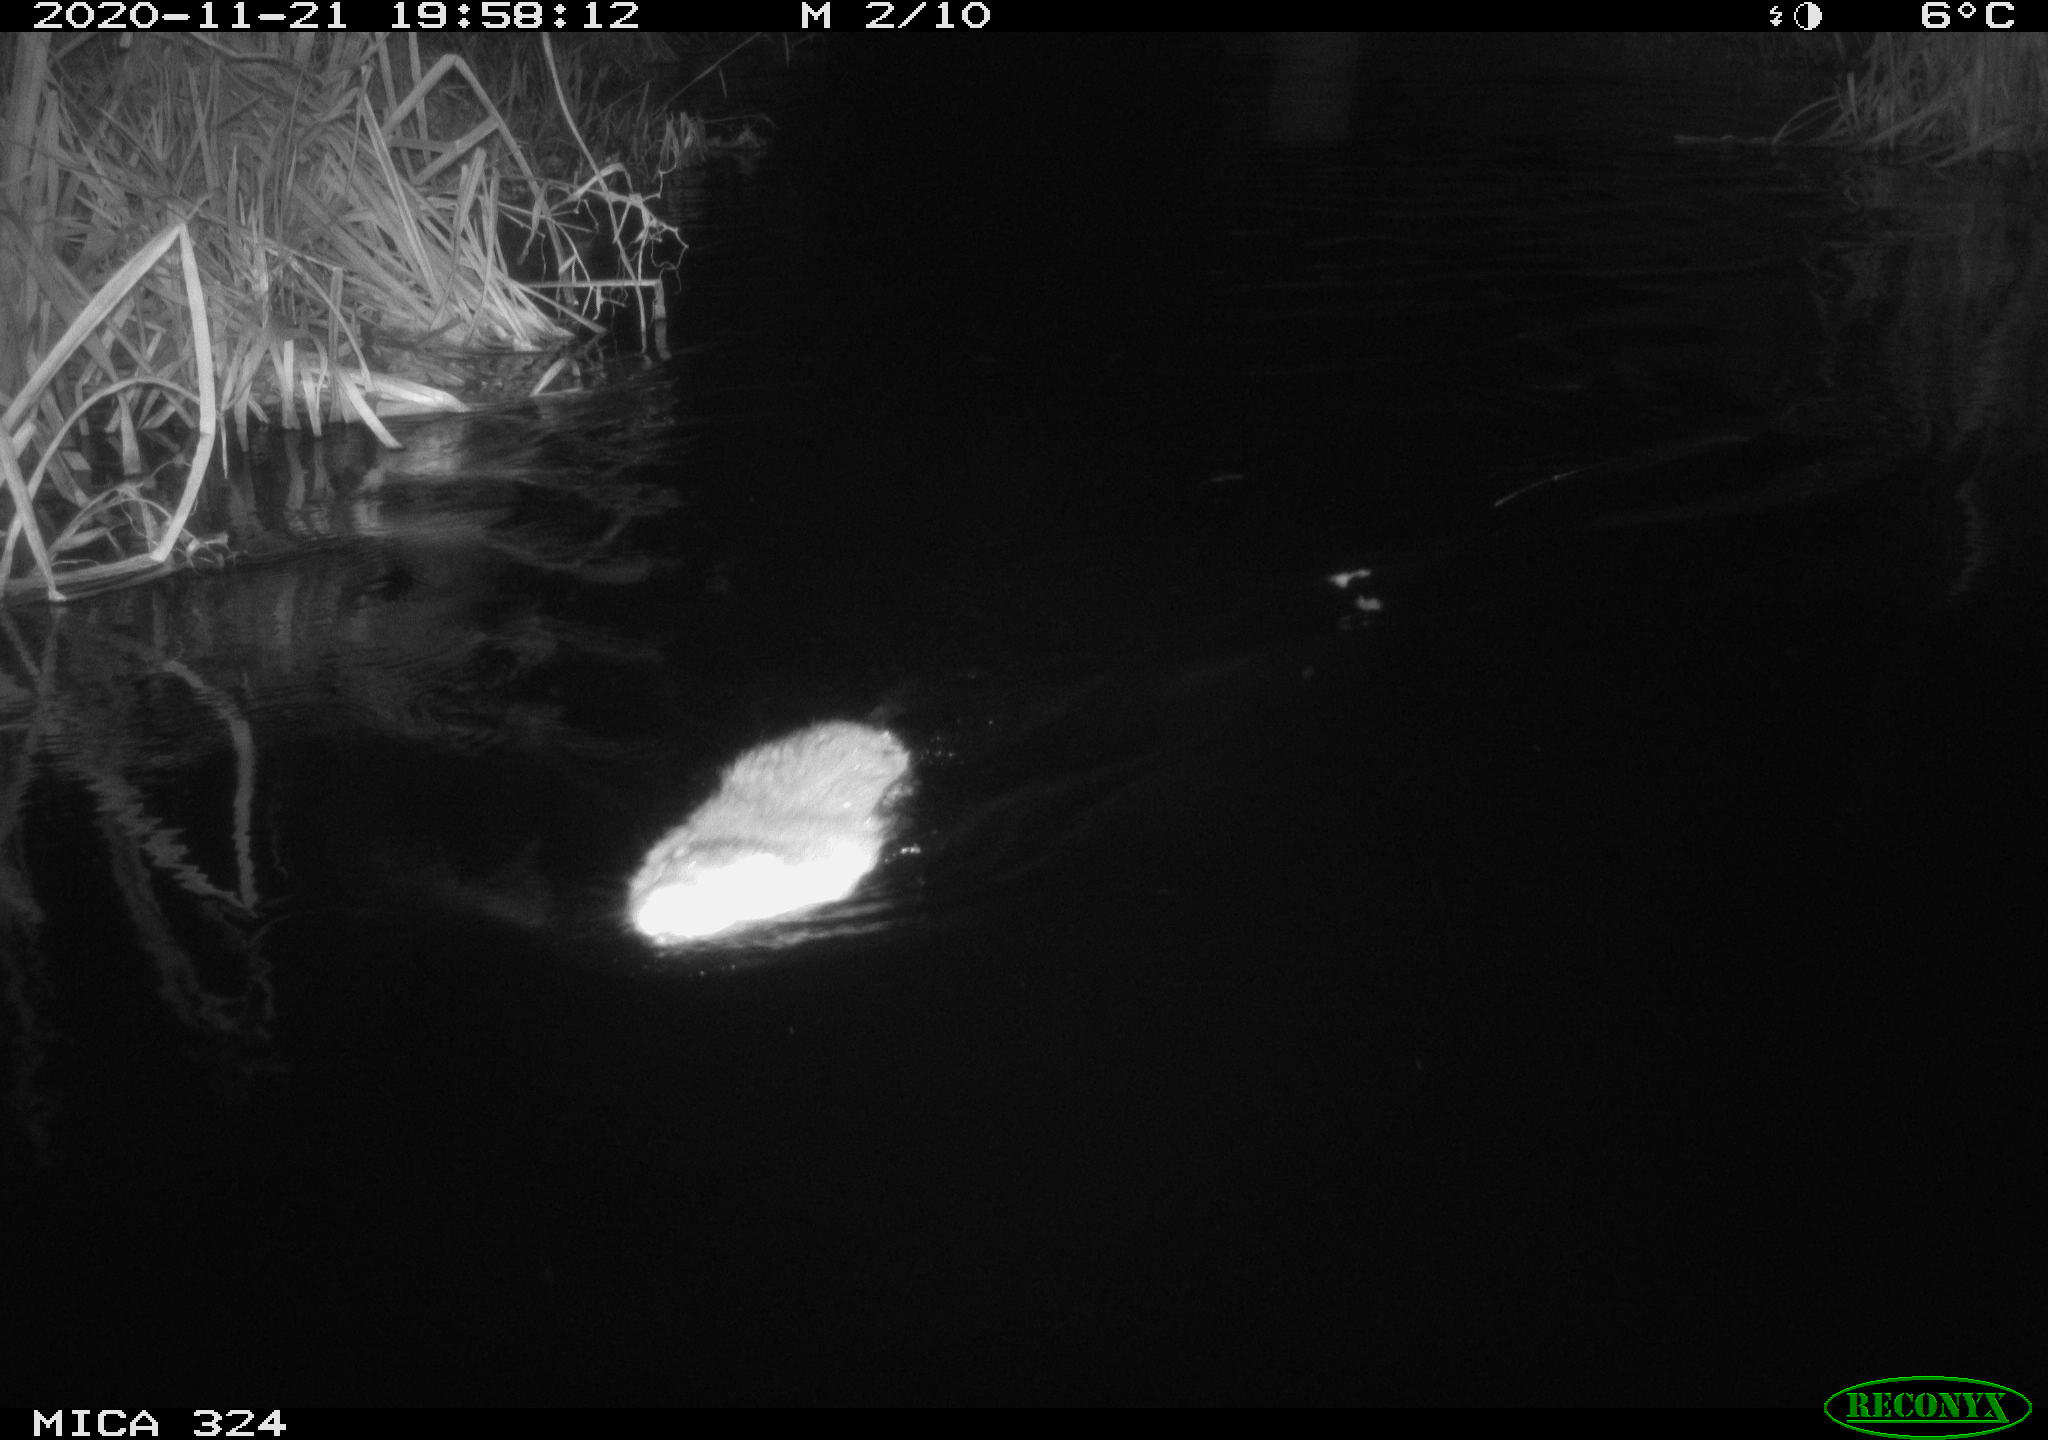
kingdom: Animalia
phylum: Chordata
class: Mammalia
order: Rodentia
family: Myocastoridae
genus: Myocastor
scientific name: Myocastor coypus
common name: Coypu
